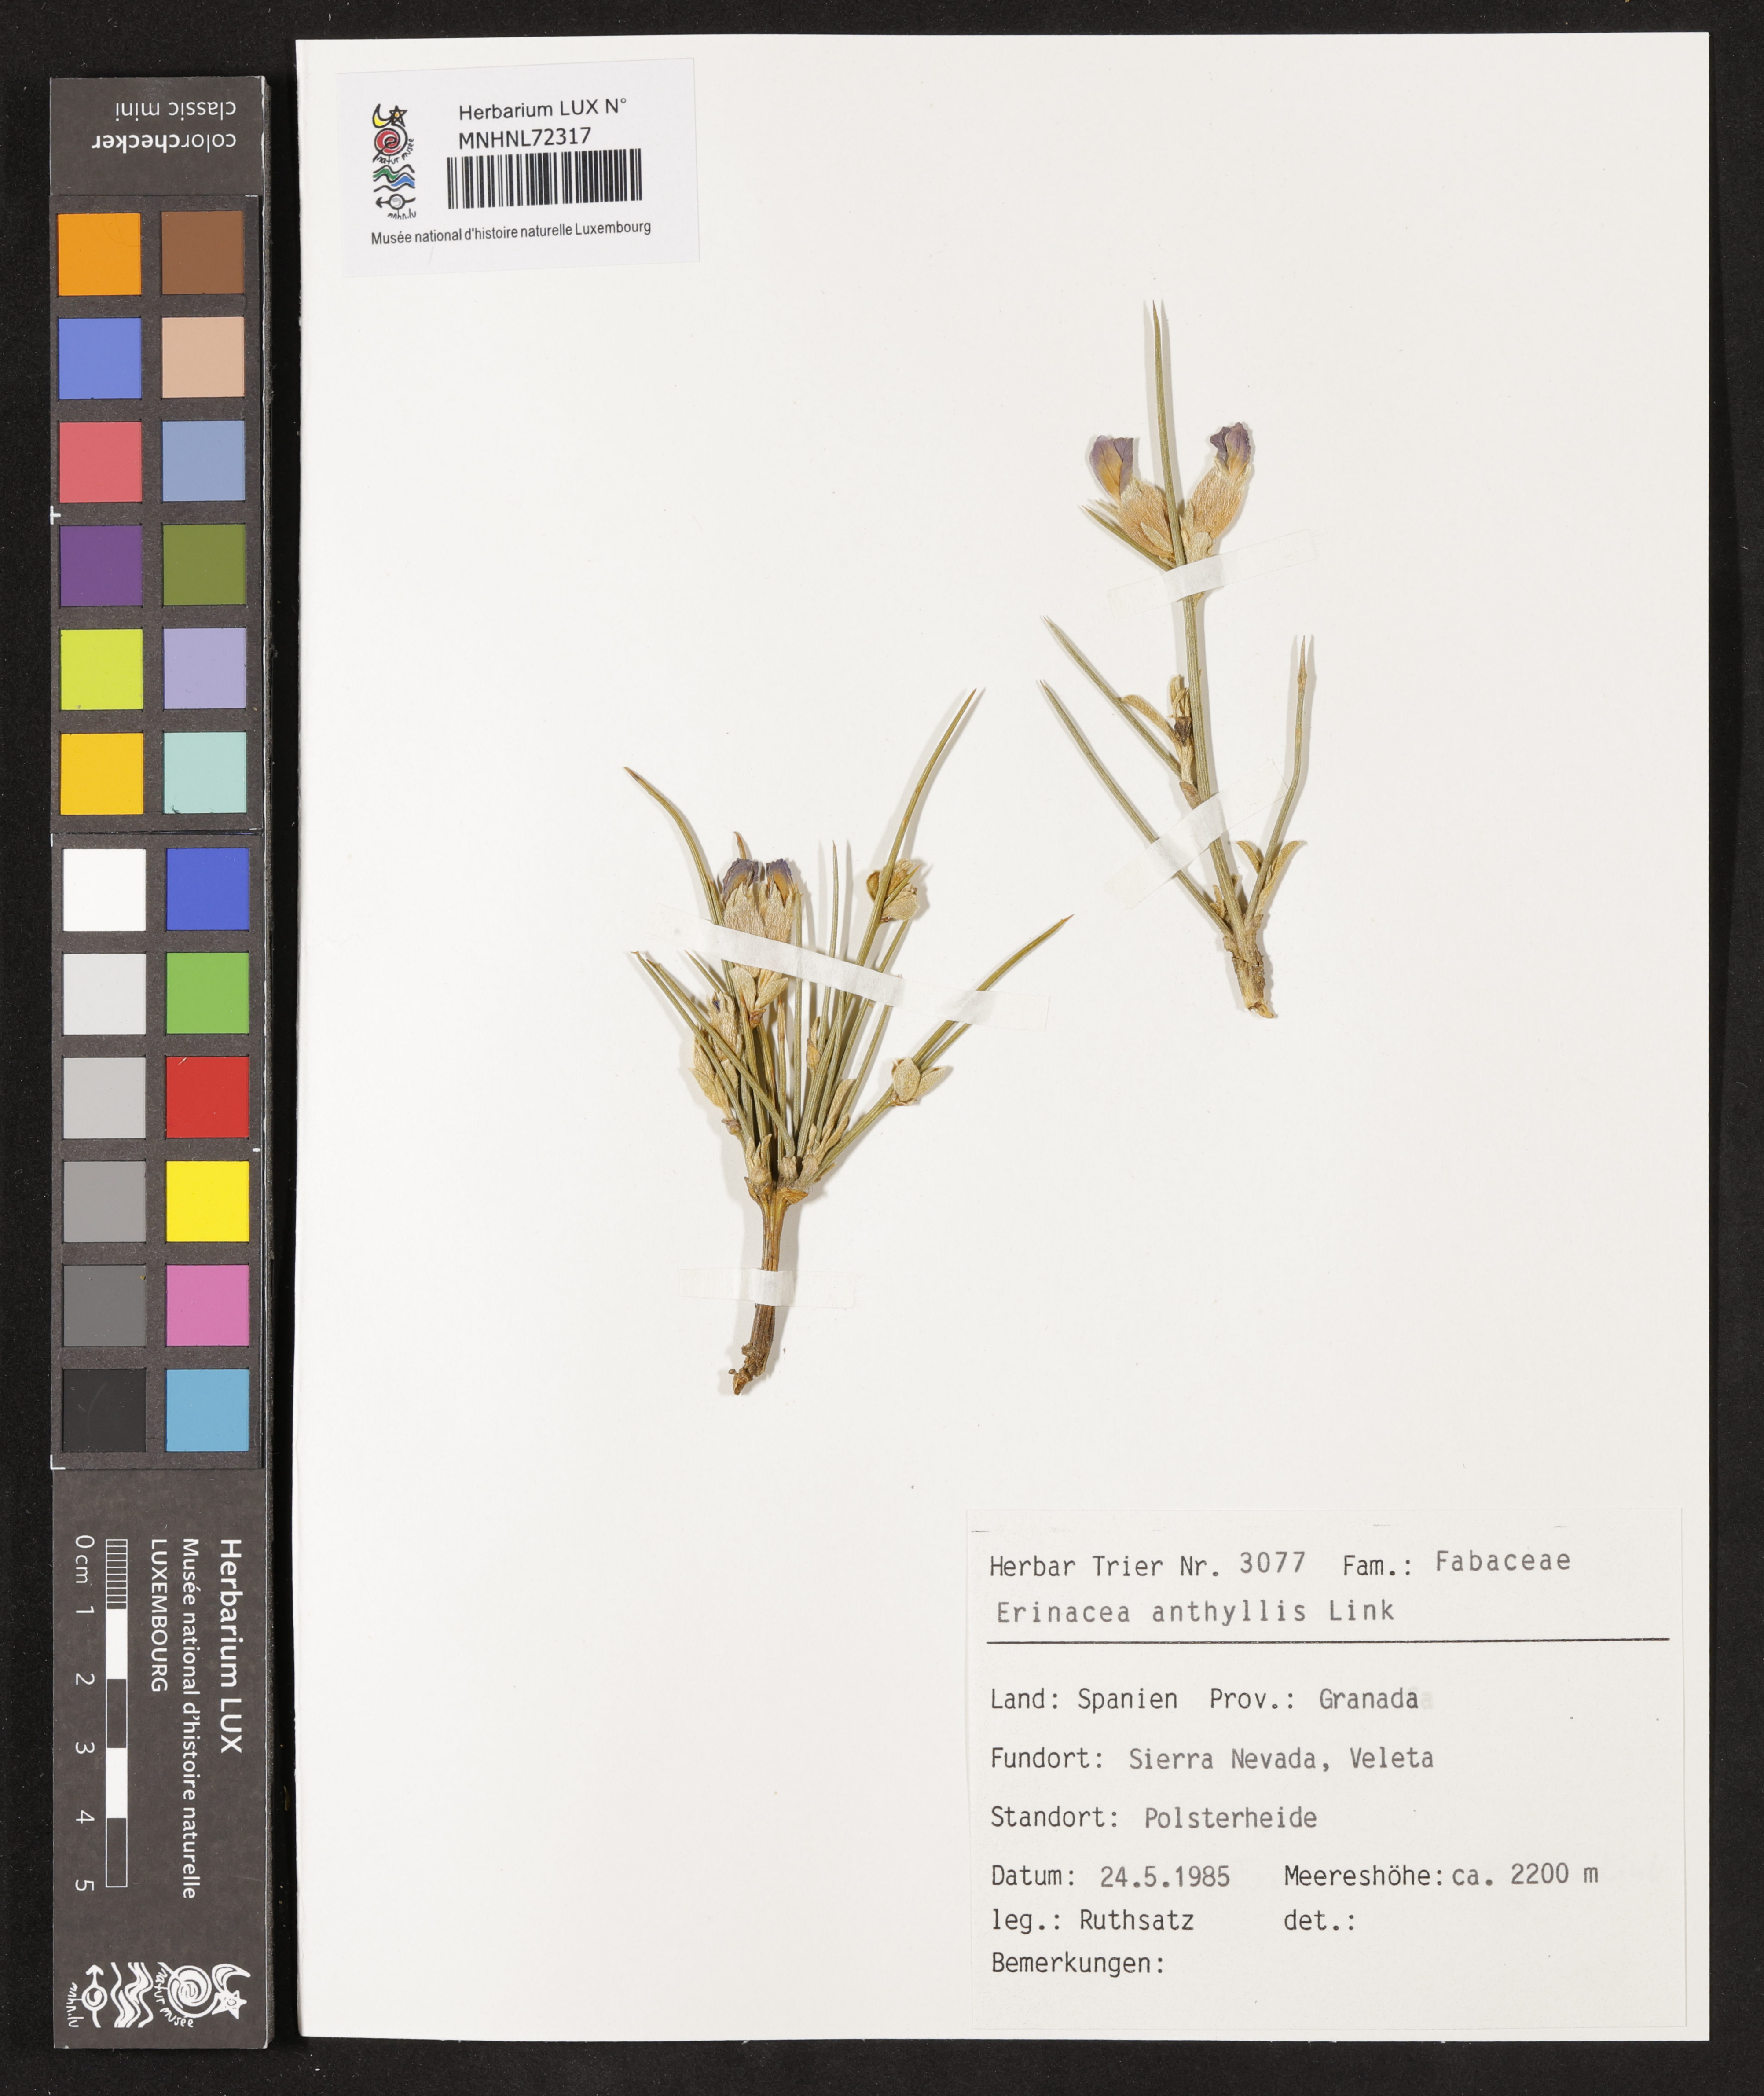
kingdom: Plantae
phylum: Tracheophyta
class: Magnoliopsida
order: Fabales
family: Fabaceae
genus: Erinacea
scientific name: Erinacea anthyllis
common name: Hedgehog-broom
